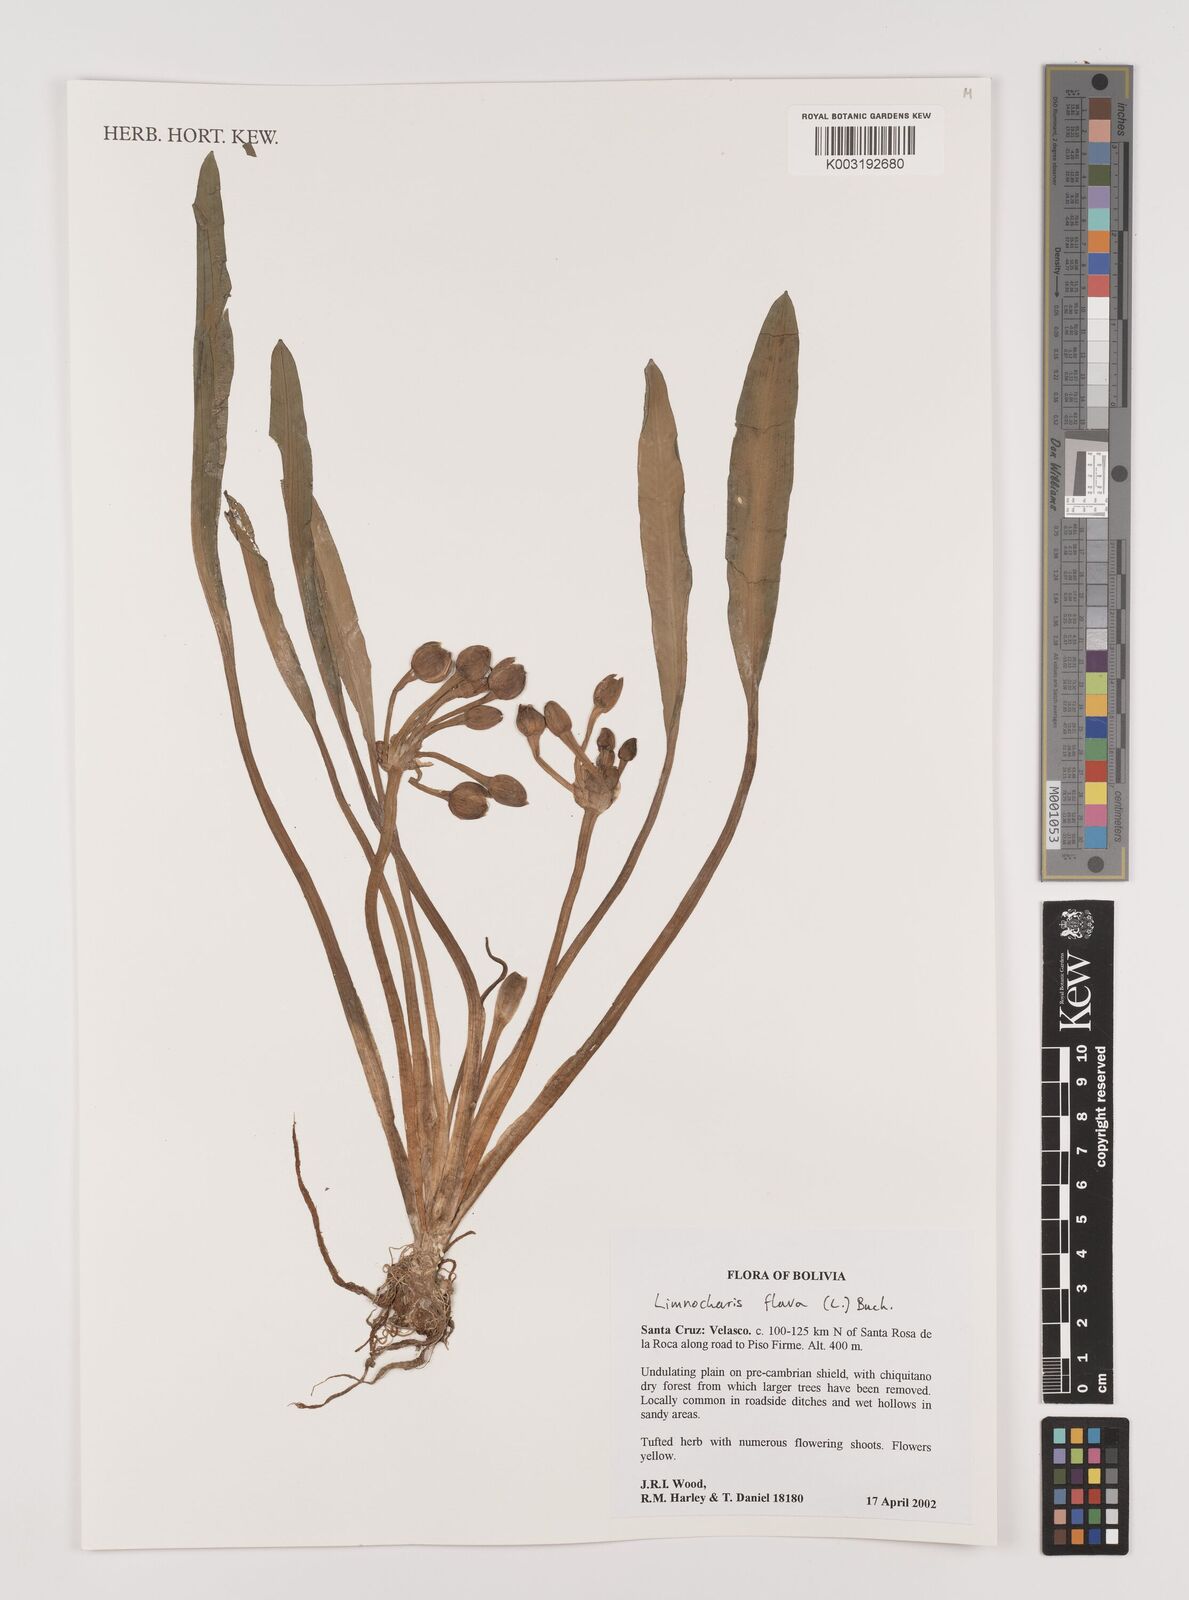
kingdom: Plantae
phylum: Tracheophyta
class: Liliopsida
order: Alismatales
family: Alismataceae
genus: Limnocharis
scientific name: Limnocharis flava
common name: Sawah-flower-rush
